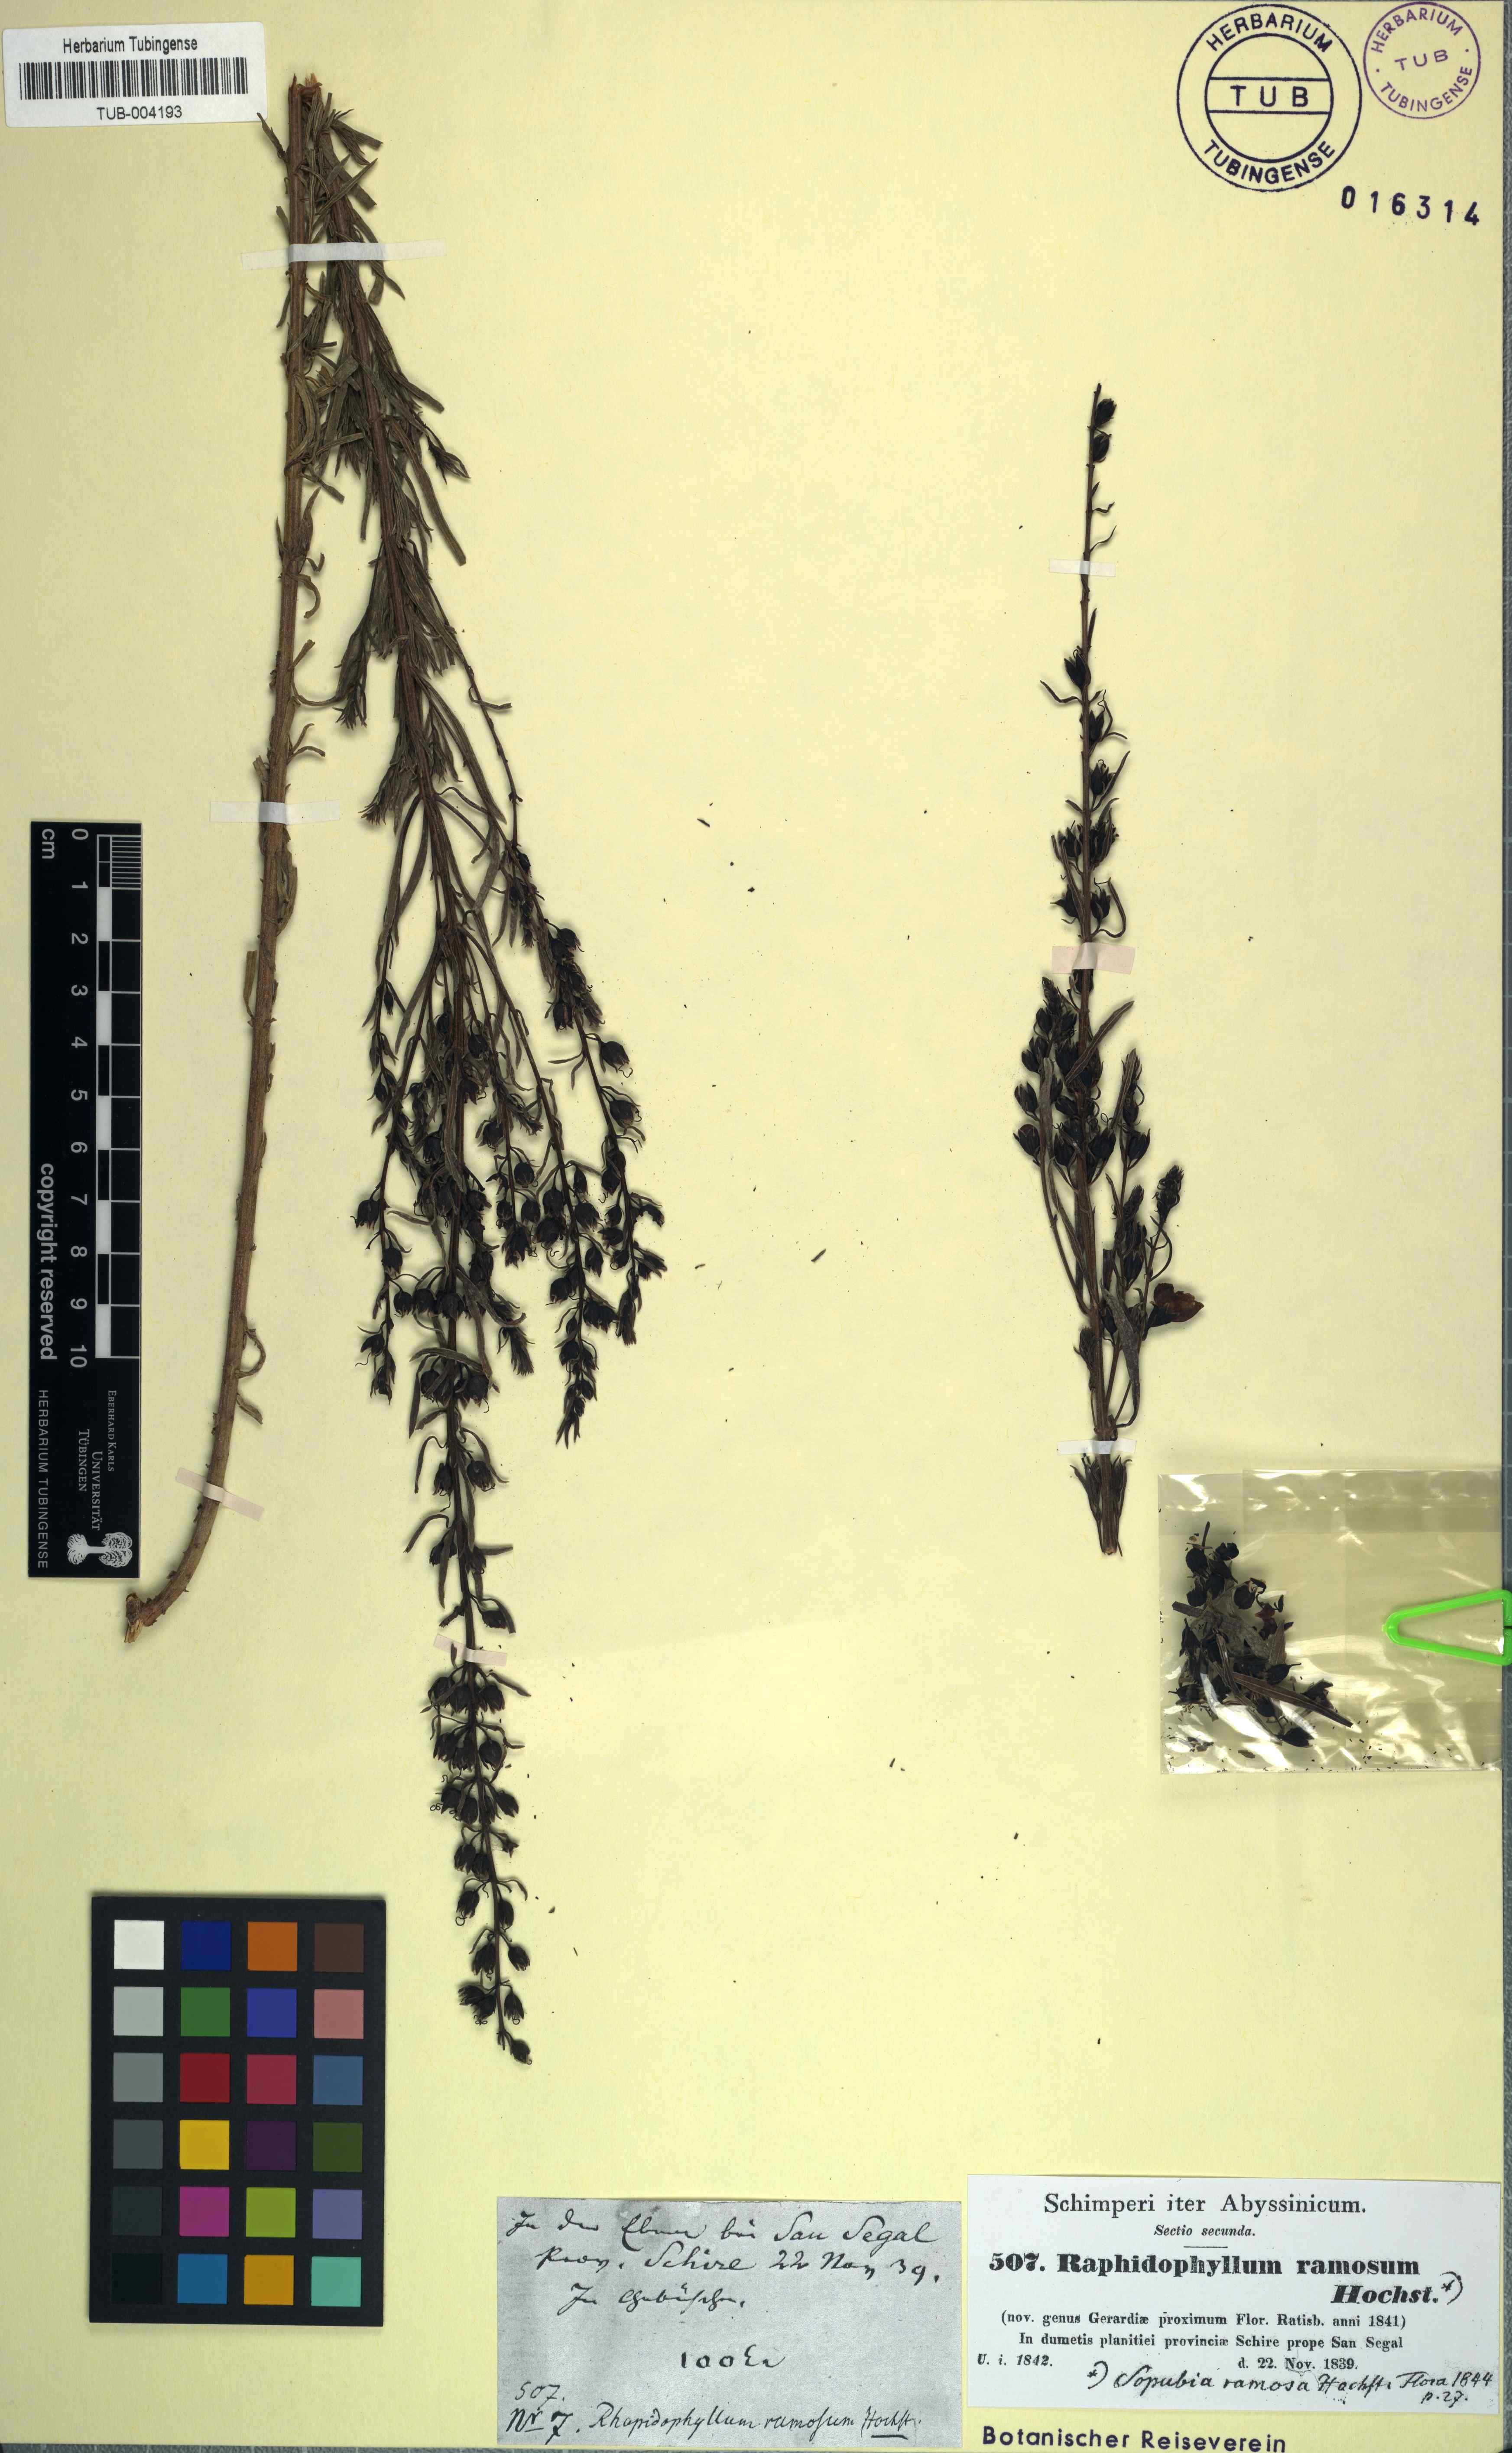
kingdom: Plantae
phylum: Tracheophyta
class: Magnoliopsida
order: Lamiales
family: Orobanchaceae
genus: Sopubia
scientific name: Sopubia ramosa
